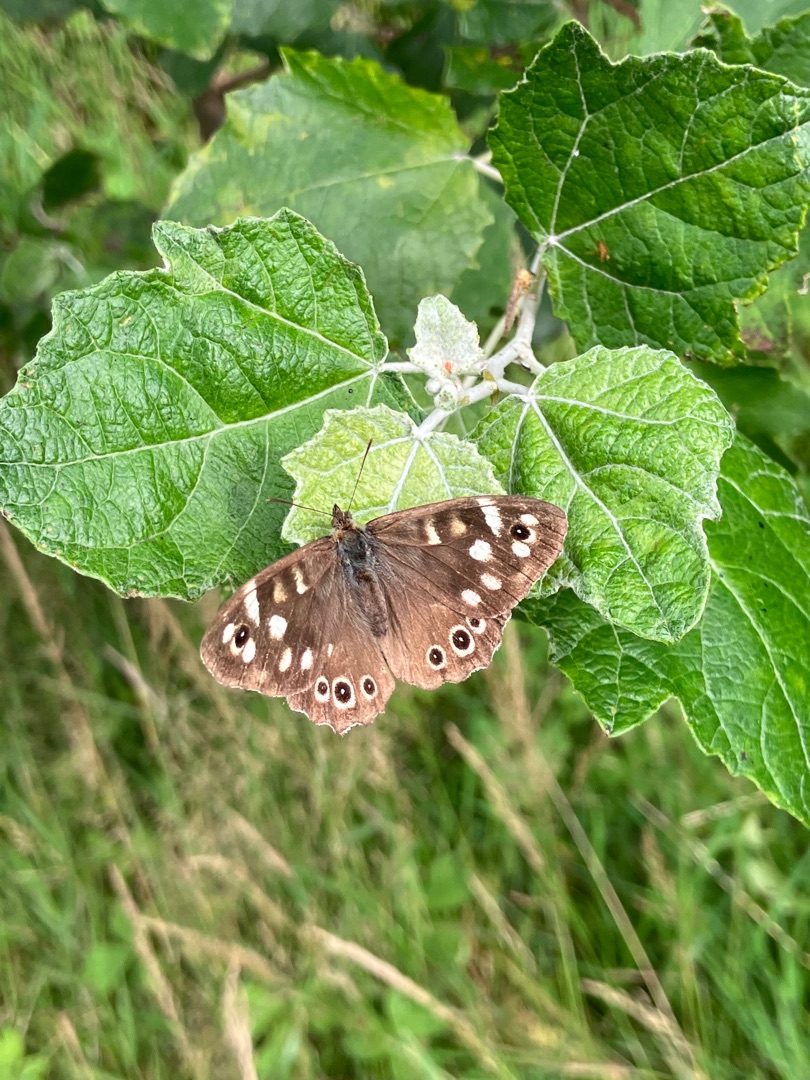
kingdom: Animalia
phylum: Arthropoda
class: Insecta
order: Lepidoptera
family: Nymphalidae
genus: Pararge
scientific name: Pararge aegeria
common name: Skovrandøje
